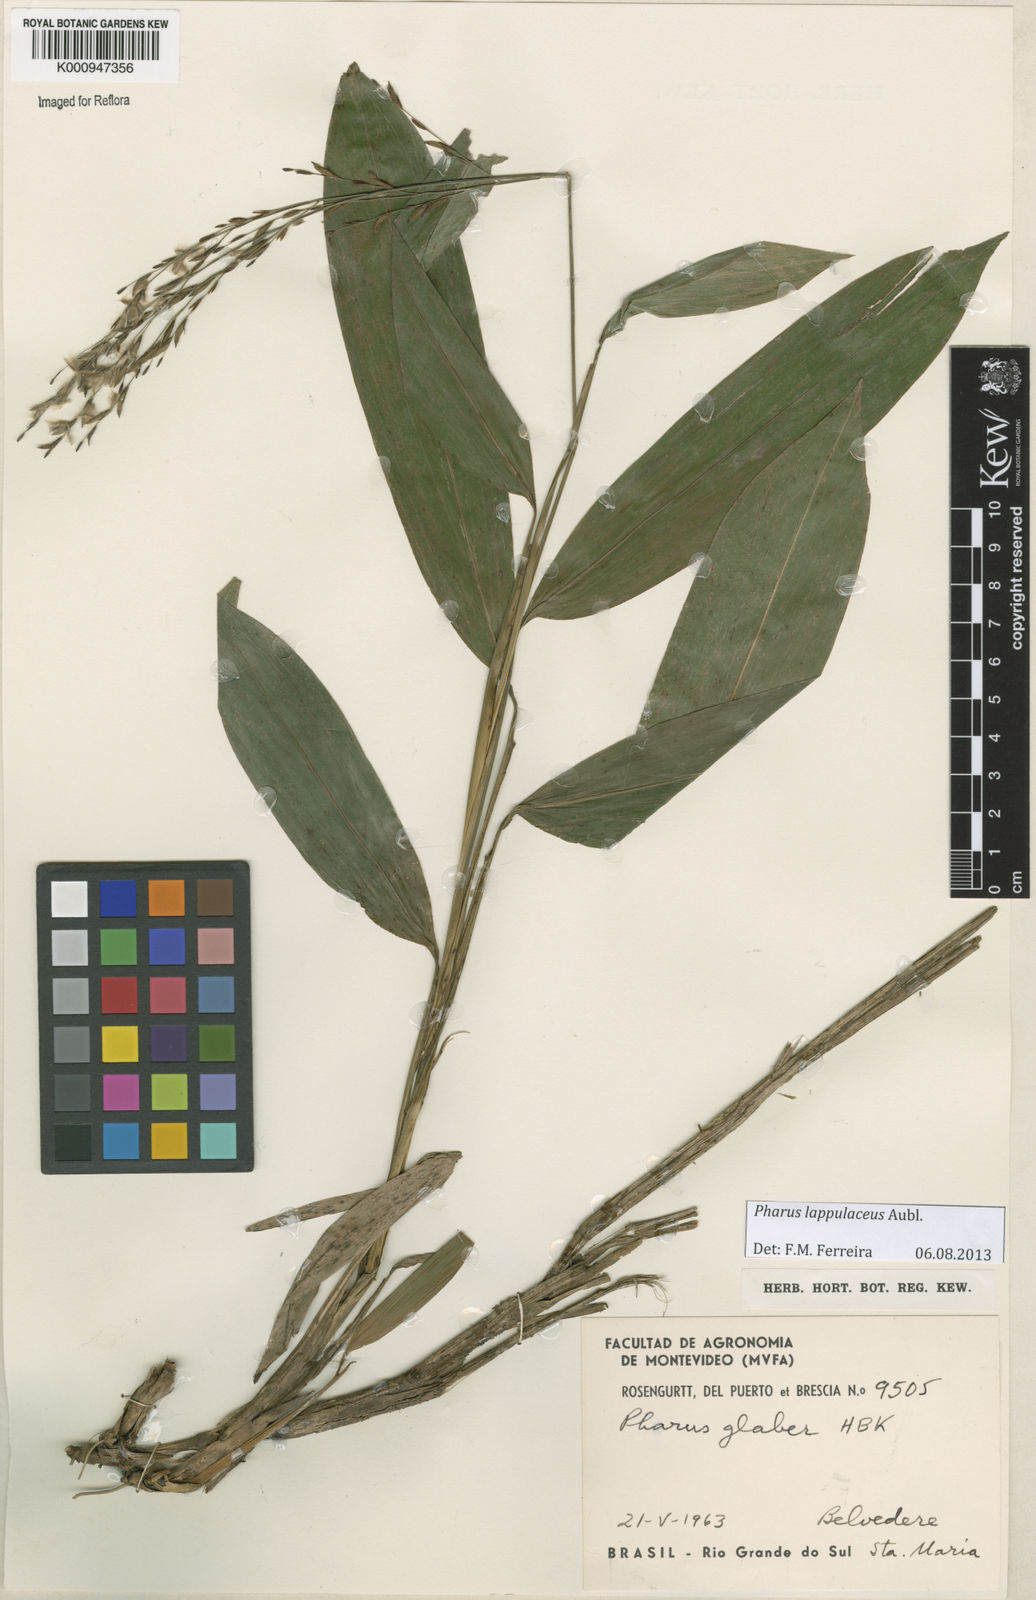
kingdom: Plantae
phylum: Tracheophyta
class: Liliopsida
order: Poales
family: Poaceae
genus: Pharus
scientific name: Pharus lappulaceus
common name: Creeping leafstalk grass
